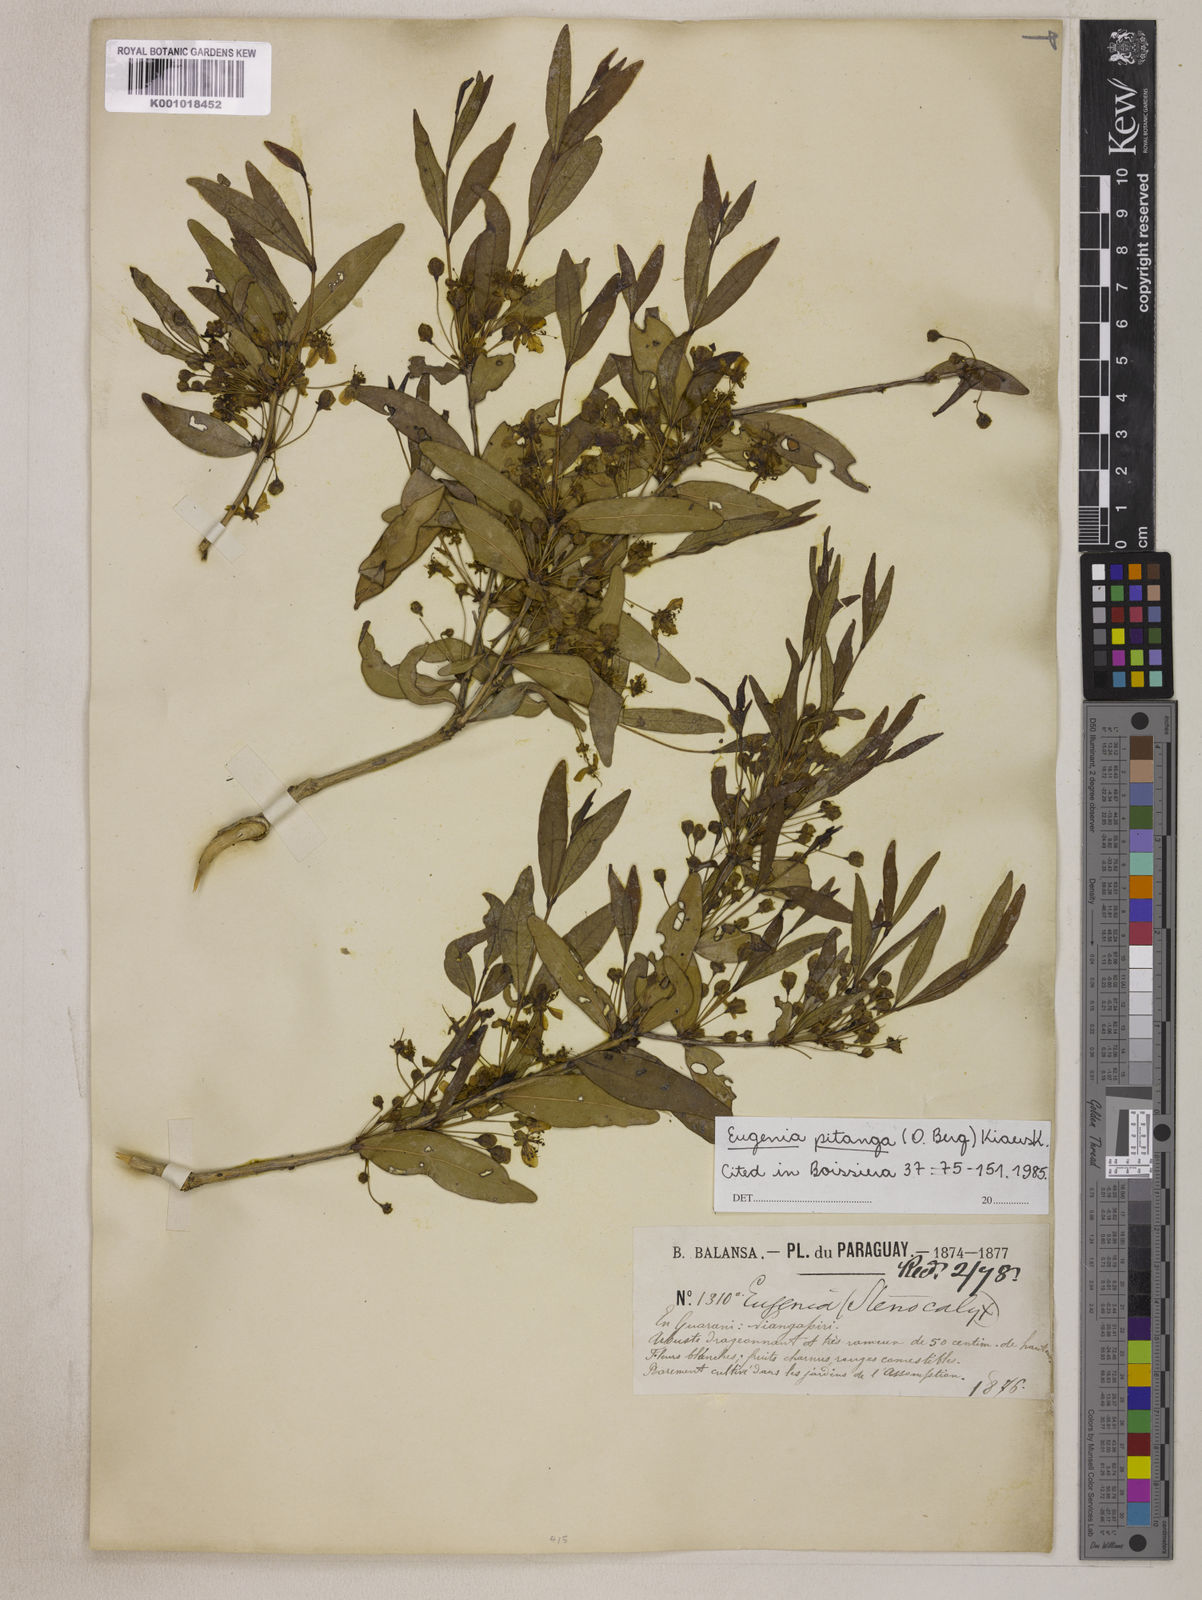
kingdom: Plantae
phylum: Tracheophyta
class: Magnoliopsida
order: Myrtales
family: Myrtaceae
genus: Eugenia
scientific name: Eugenia
